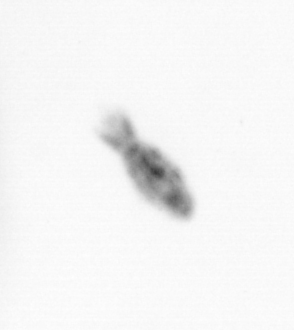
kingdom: Animalia
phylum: Arthropoda
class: Copepoda
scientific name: Copepoda
